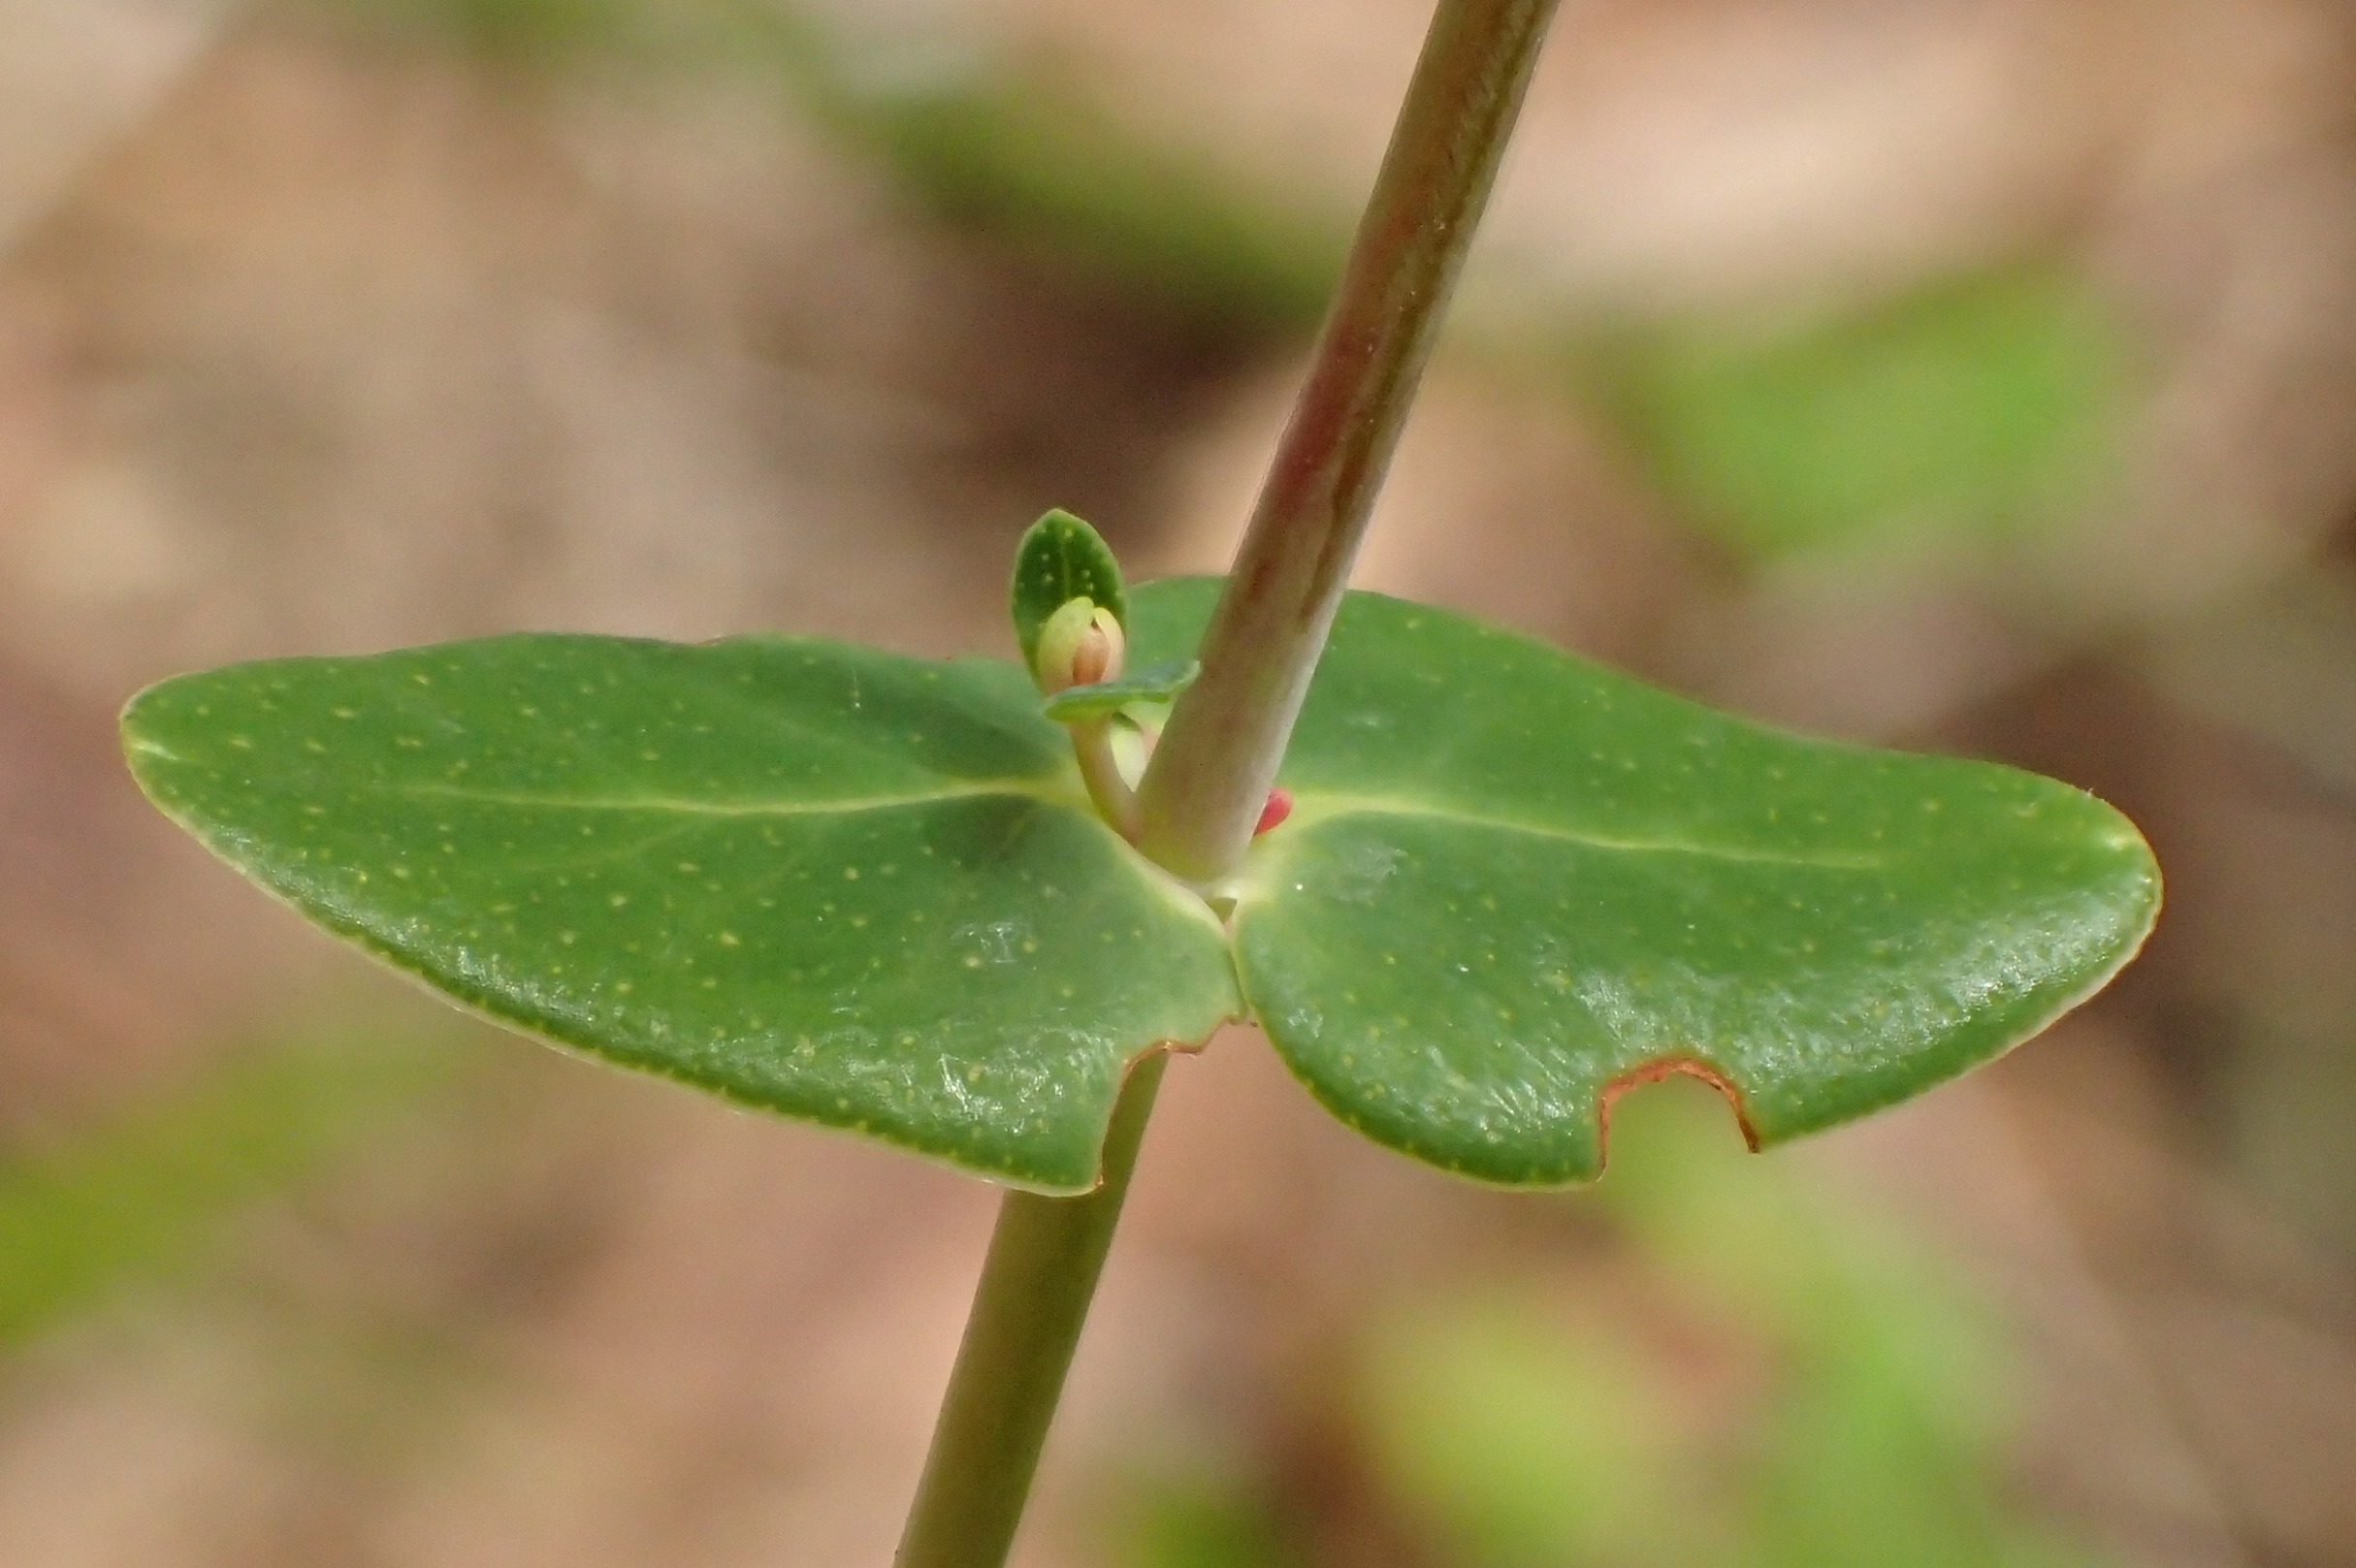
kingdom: Plantae
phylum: Tracheophyta
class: Magnoliopsida
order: Malpighiales
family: Hypericaceae
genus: Hypericum
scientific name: Hypericum pulchrum
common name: Smuk perikon
